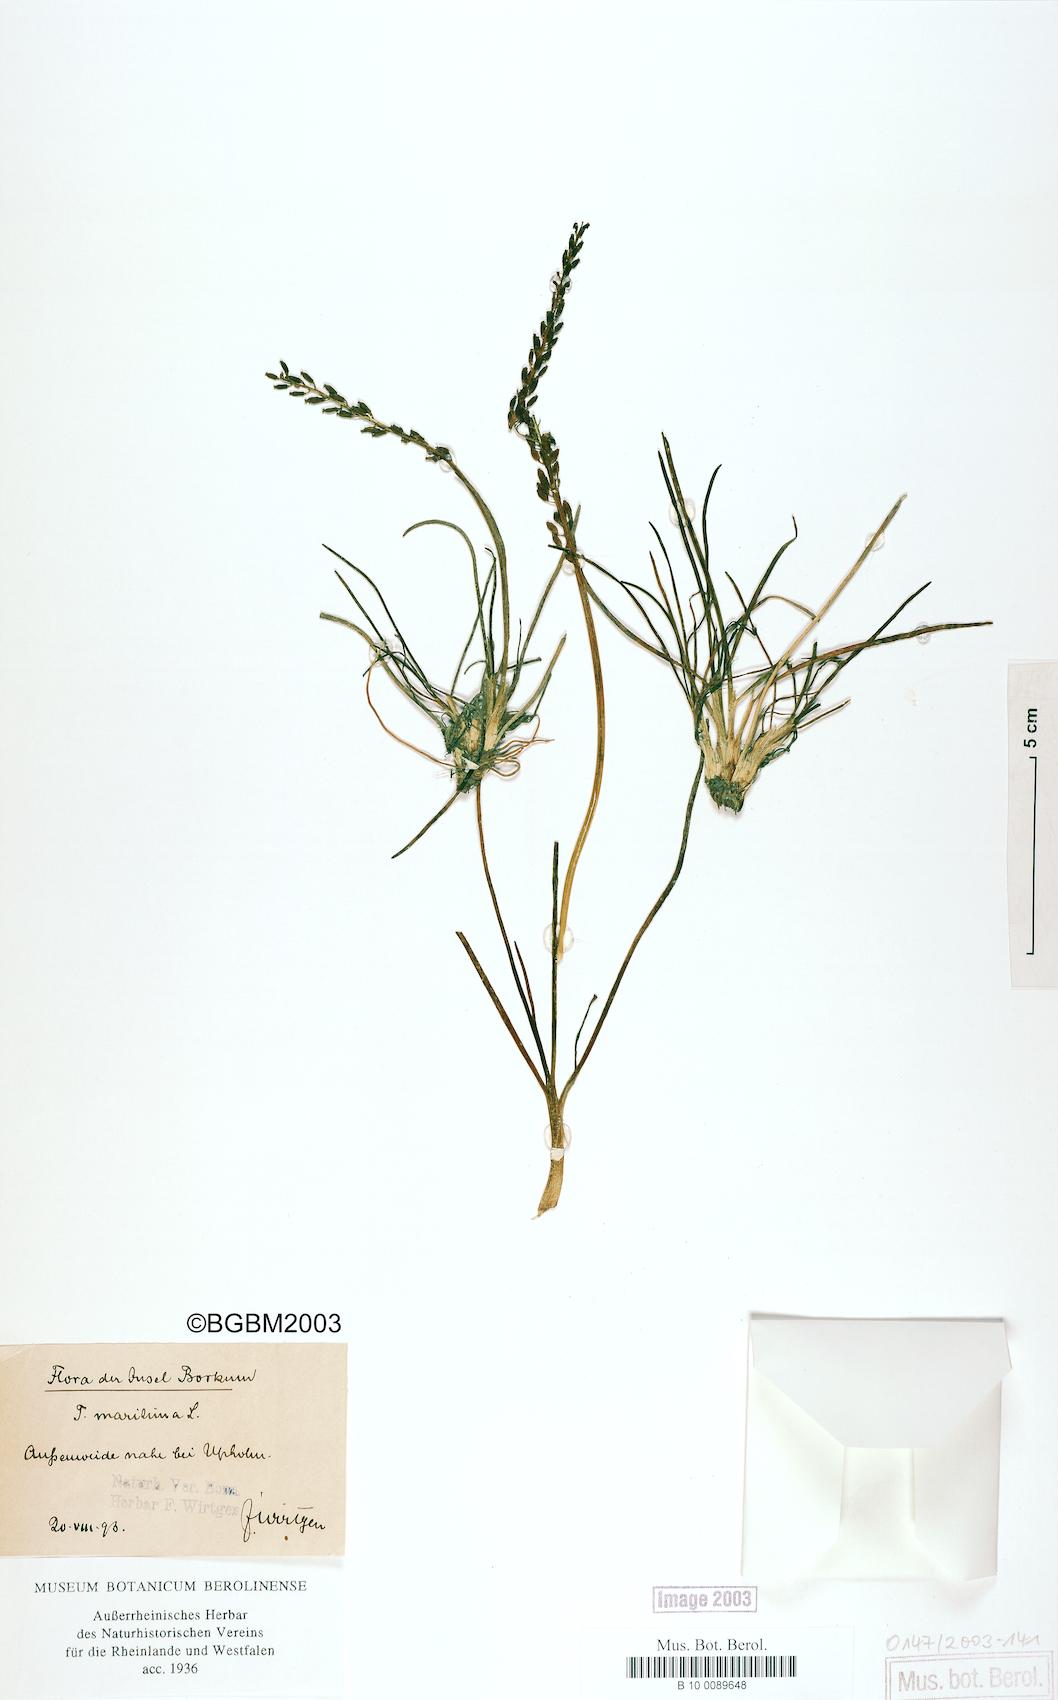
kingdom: Plantae
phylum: Tracheophyta
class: Liliopsida
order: Alismatales
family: Juncaginaceae
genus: Triglochin
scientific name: Triglochin maritima
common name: Sea arrowgrass
